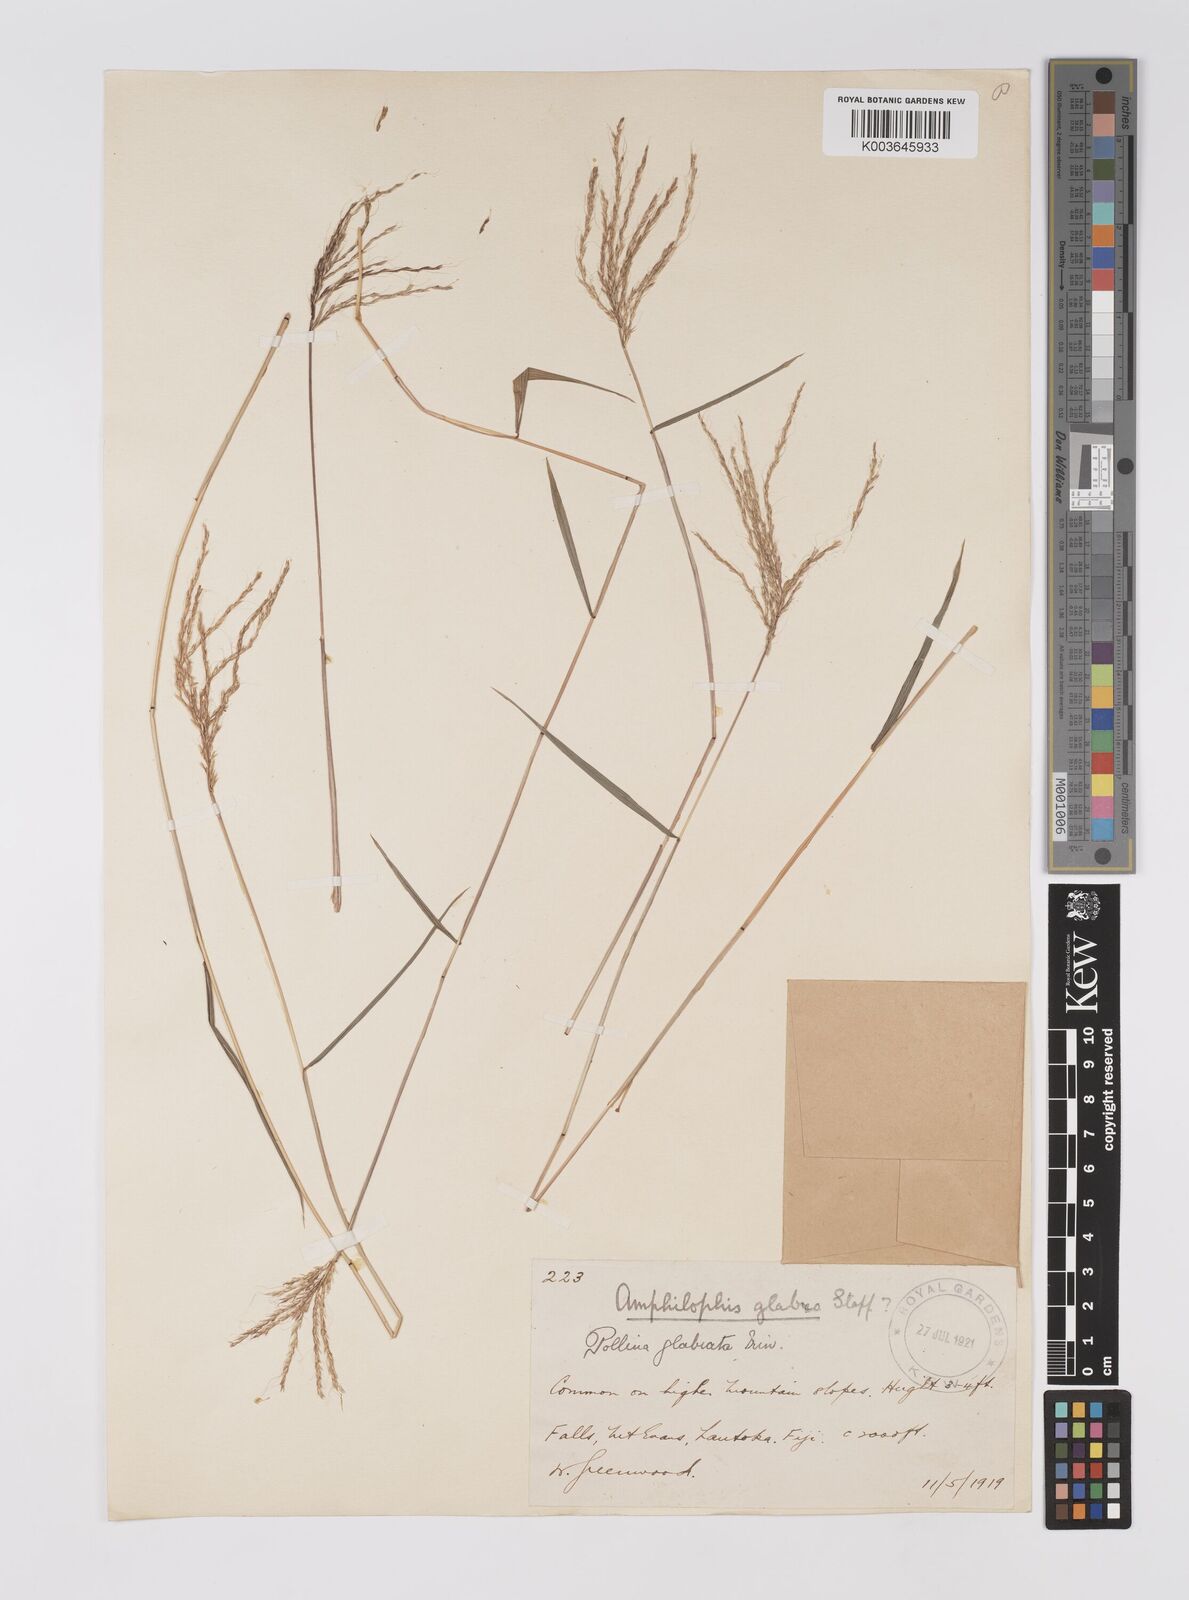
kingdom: Plantae
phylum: Tracheophyta
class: Liliopsida
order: Poales
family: Poaceae
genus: Microstegium
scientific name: Microstegium glabratum
